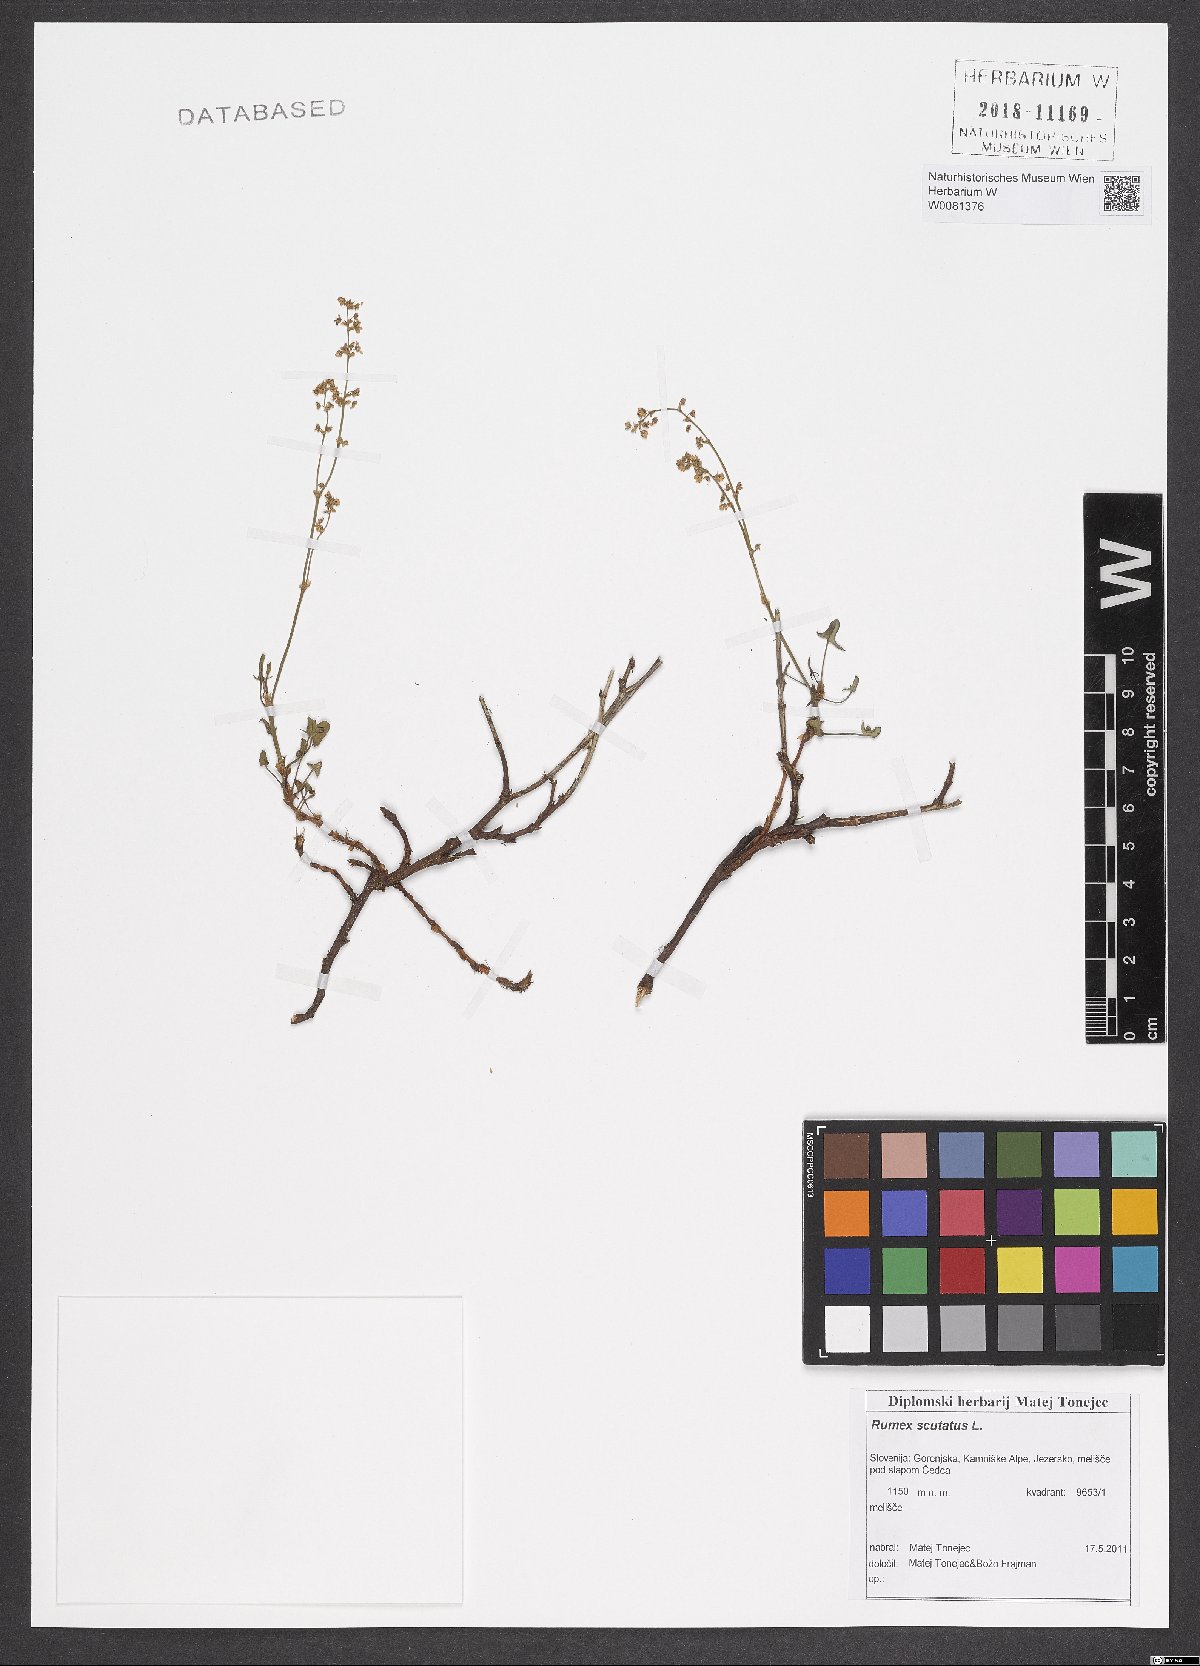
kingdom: Plantae
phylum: Tracheophyta
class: Magnoliopsida
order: Caryophyllales
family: Polygonaceae
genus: Rumex
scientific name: Rumex scutatus
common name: French sorrel
